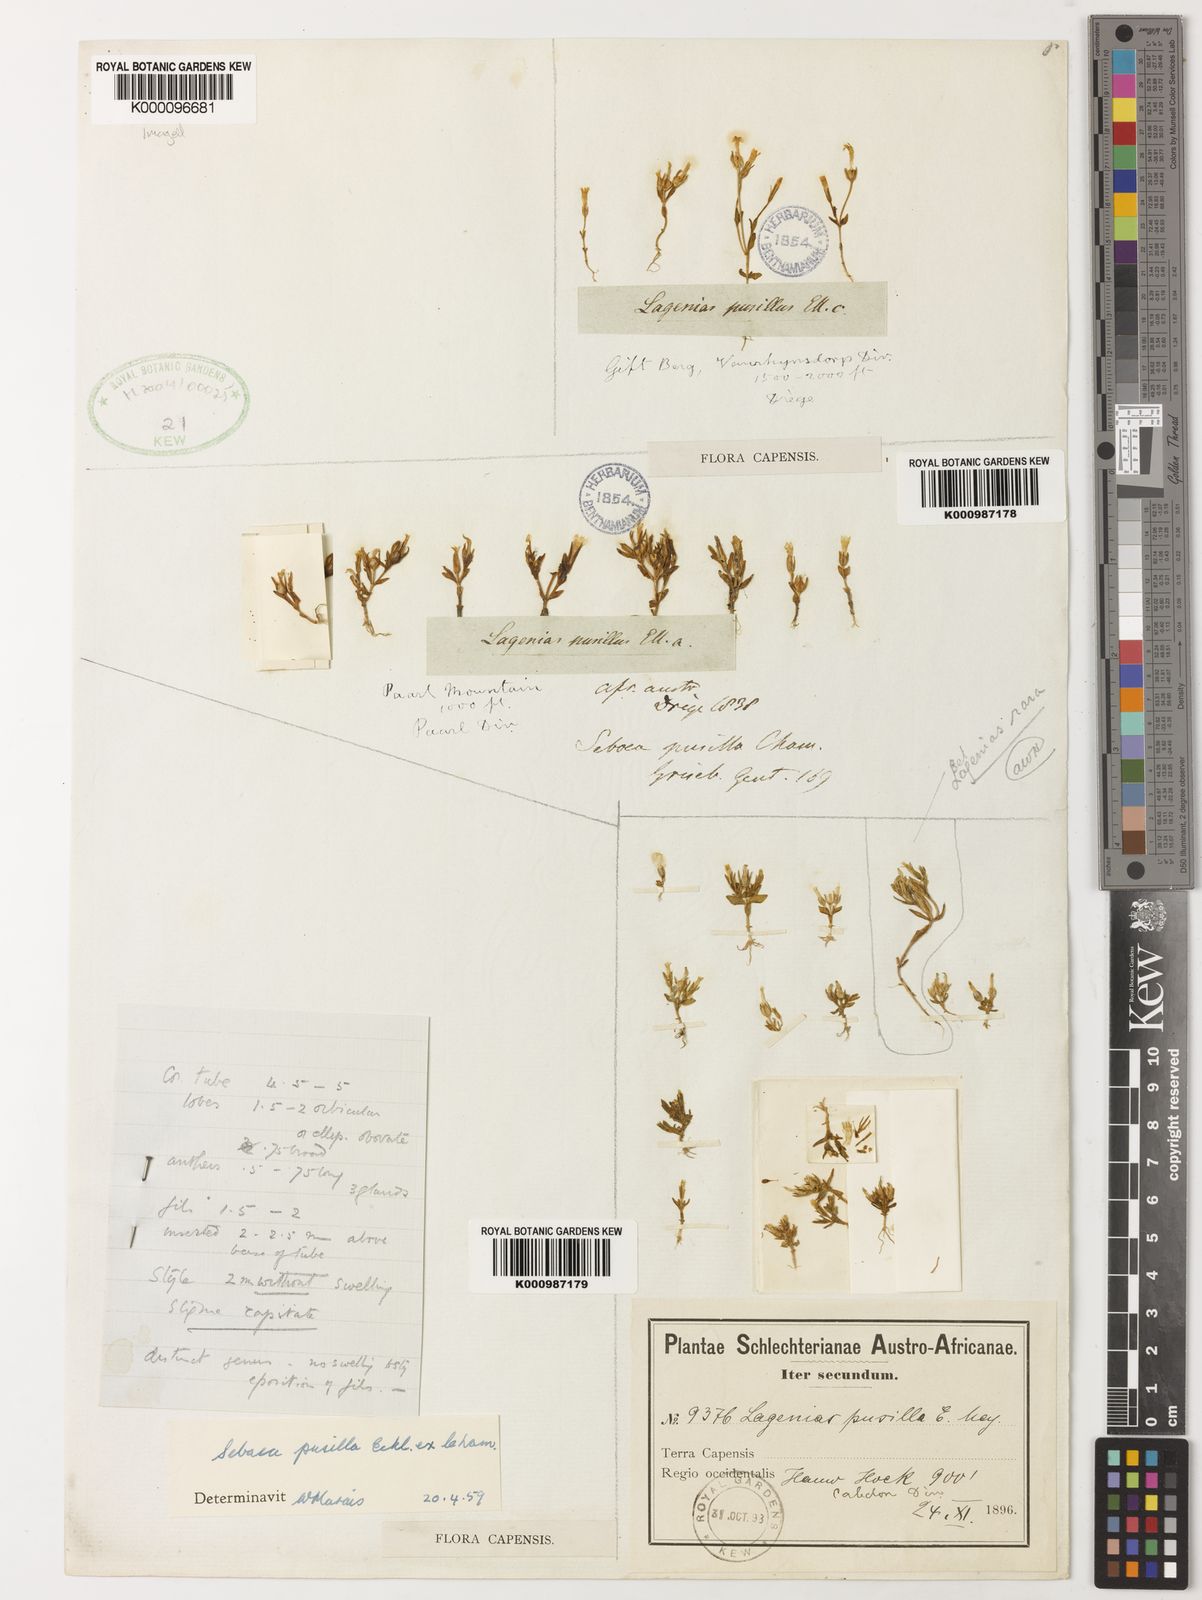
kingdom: Plantae
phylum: Tracheophyta
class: Magnoliopsida
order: Gentianales
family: Gentianaceae
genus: Sebaea
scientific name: Sebaea pusilla
